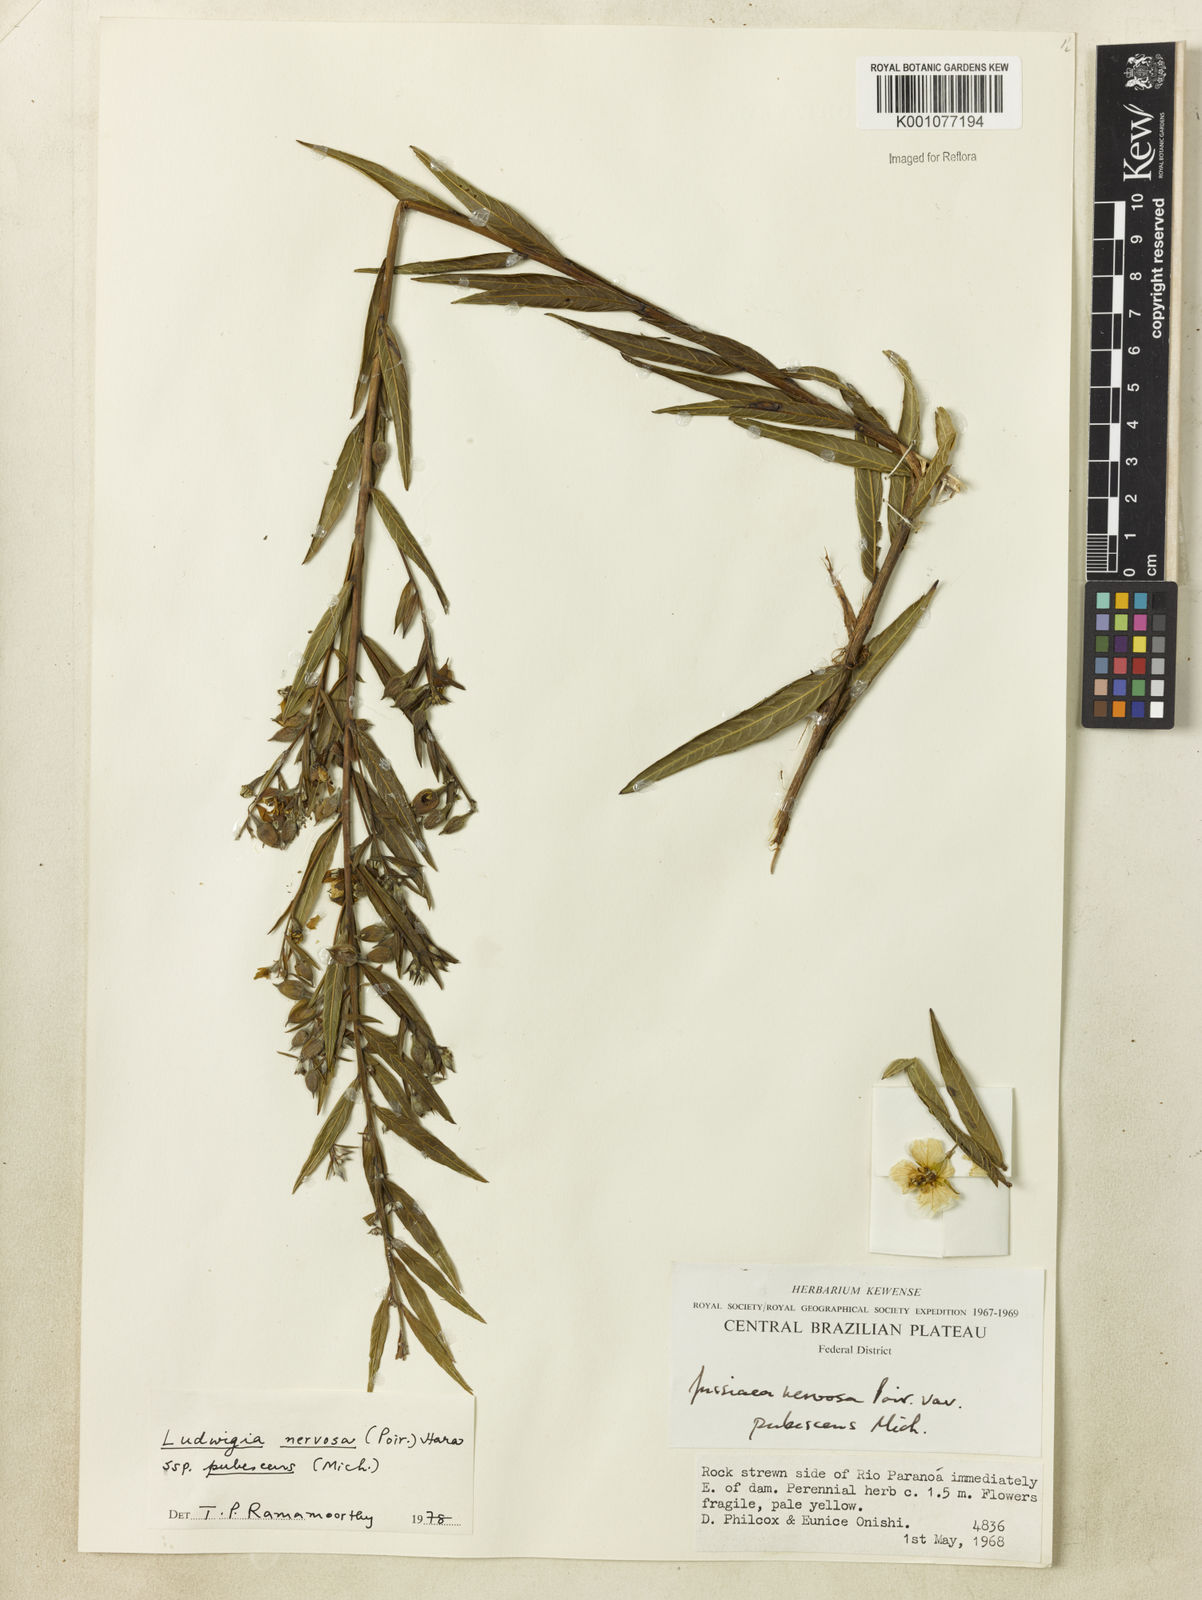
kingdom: Plantae
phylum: Tracheophyta
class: Magnoliopsida
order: Myrtales
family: Onagraceae
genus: Ludwigia
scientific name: Ludwigia nervosa
